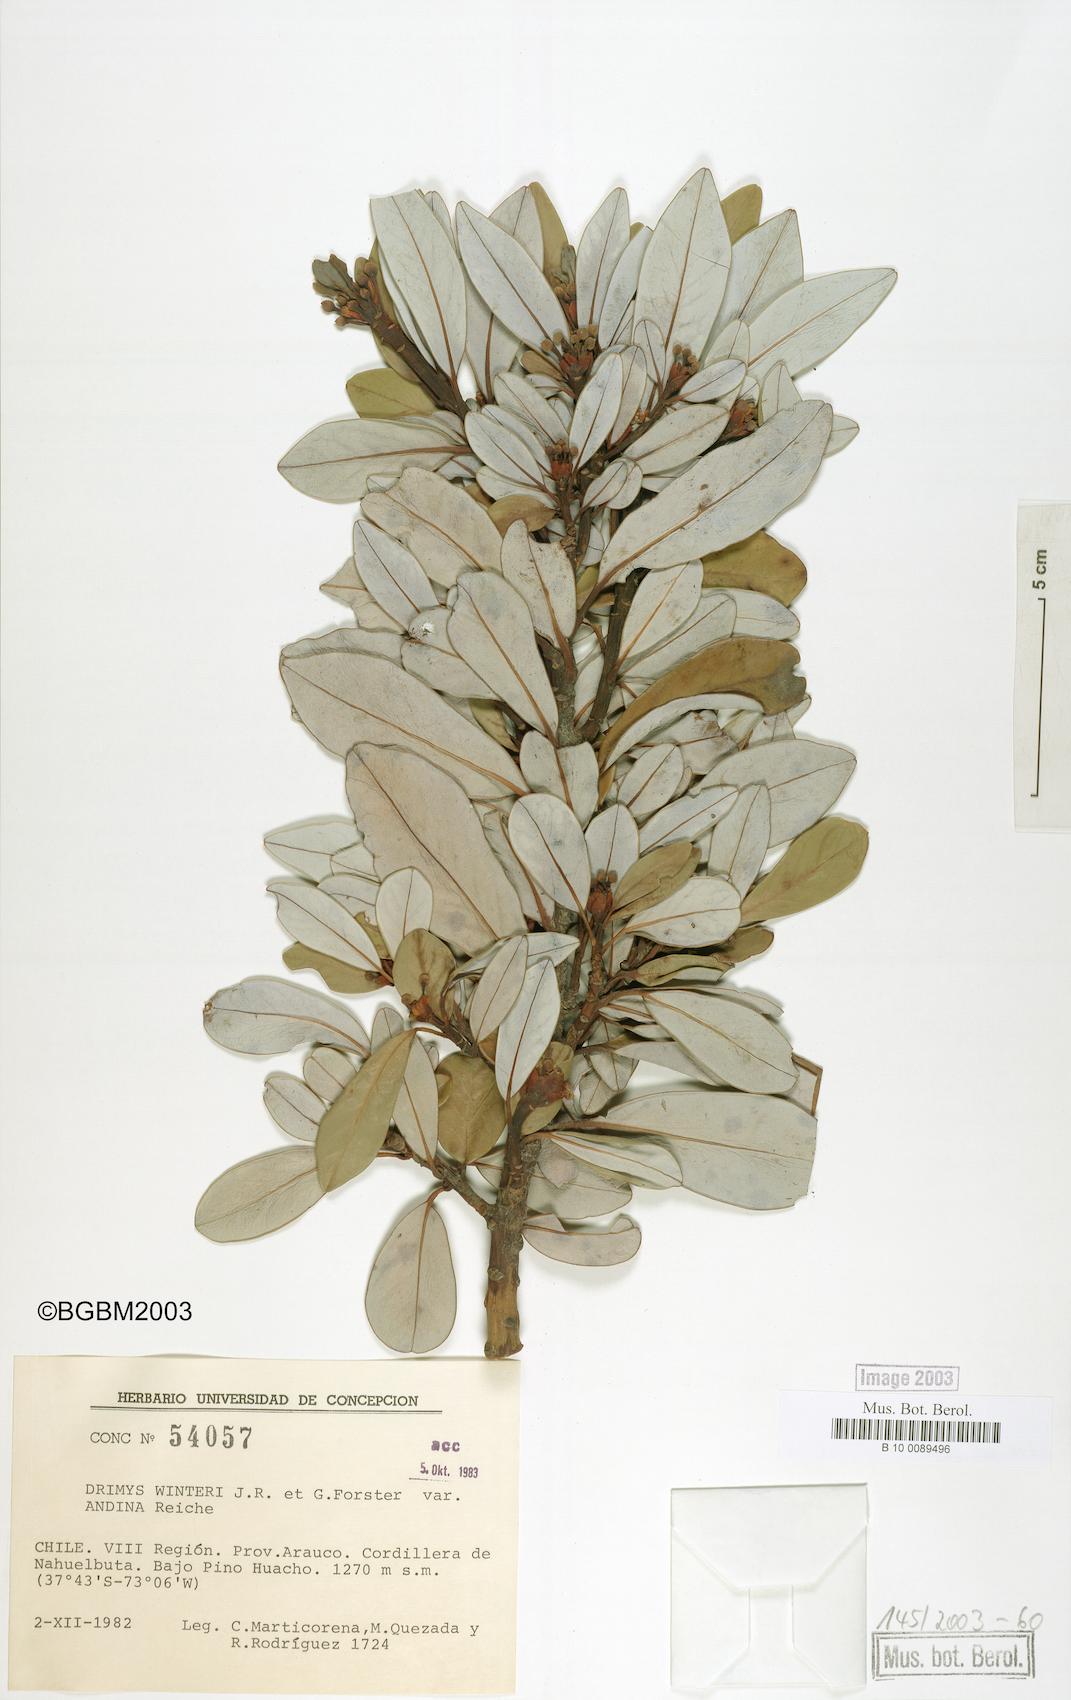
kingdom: Plantae
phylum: Tracheophyta
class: Magnoliopsida
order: Canellales
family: Winteraceae
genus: Drimys
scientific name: Drimys andina
